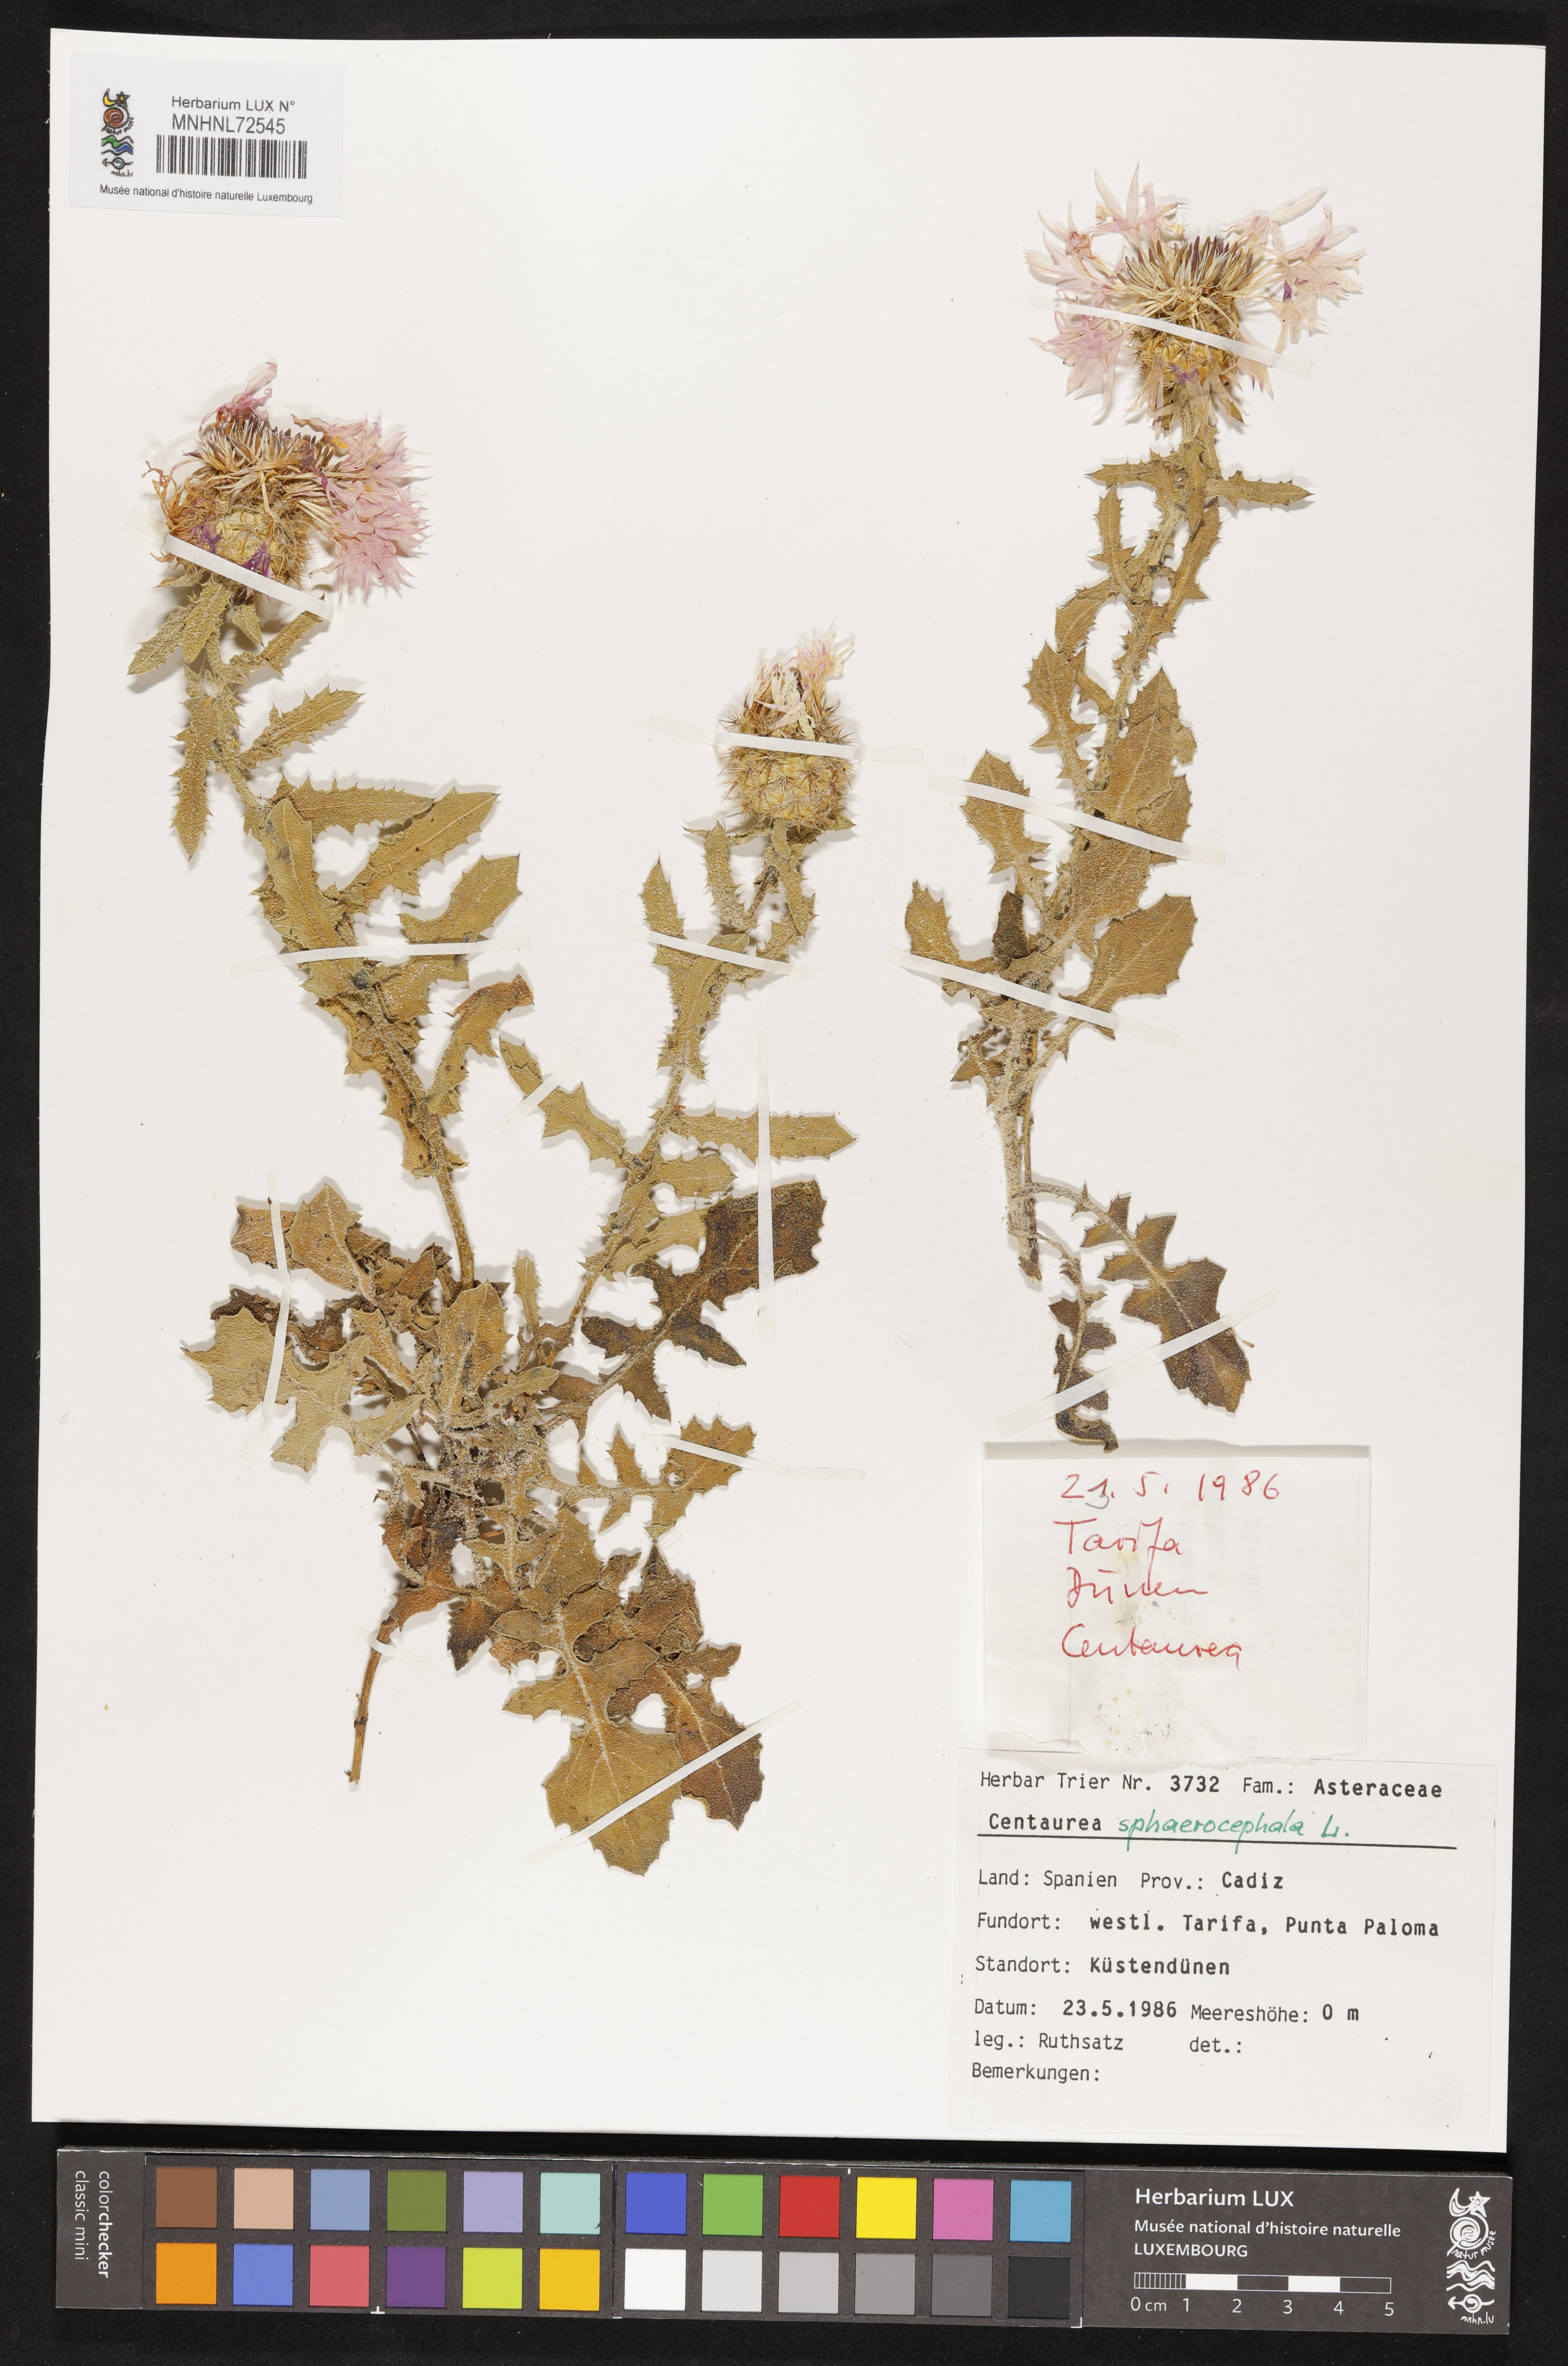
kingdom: Plantae
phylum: Tracheophyta
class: Magnoliopsida
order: Asterales
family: Asteraceae
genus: Centaurea
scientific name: Centaurea sphaerocephala
